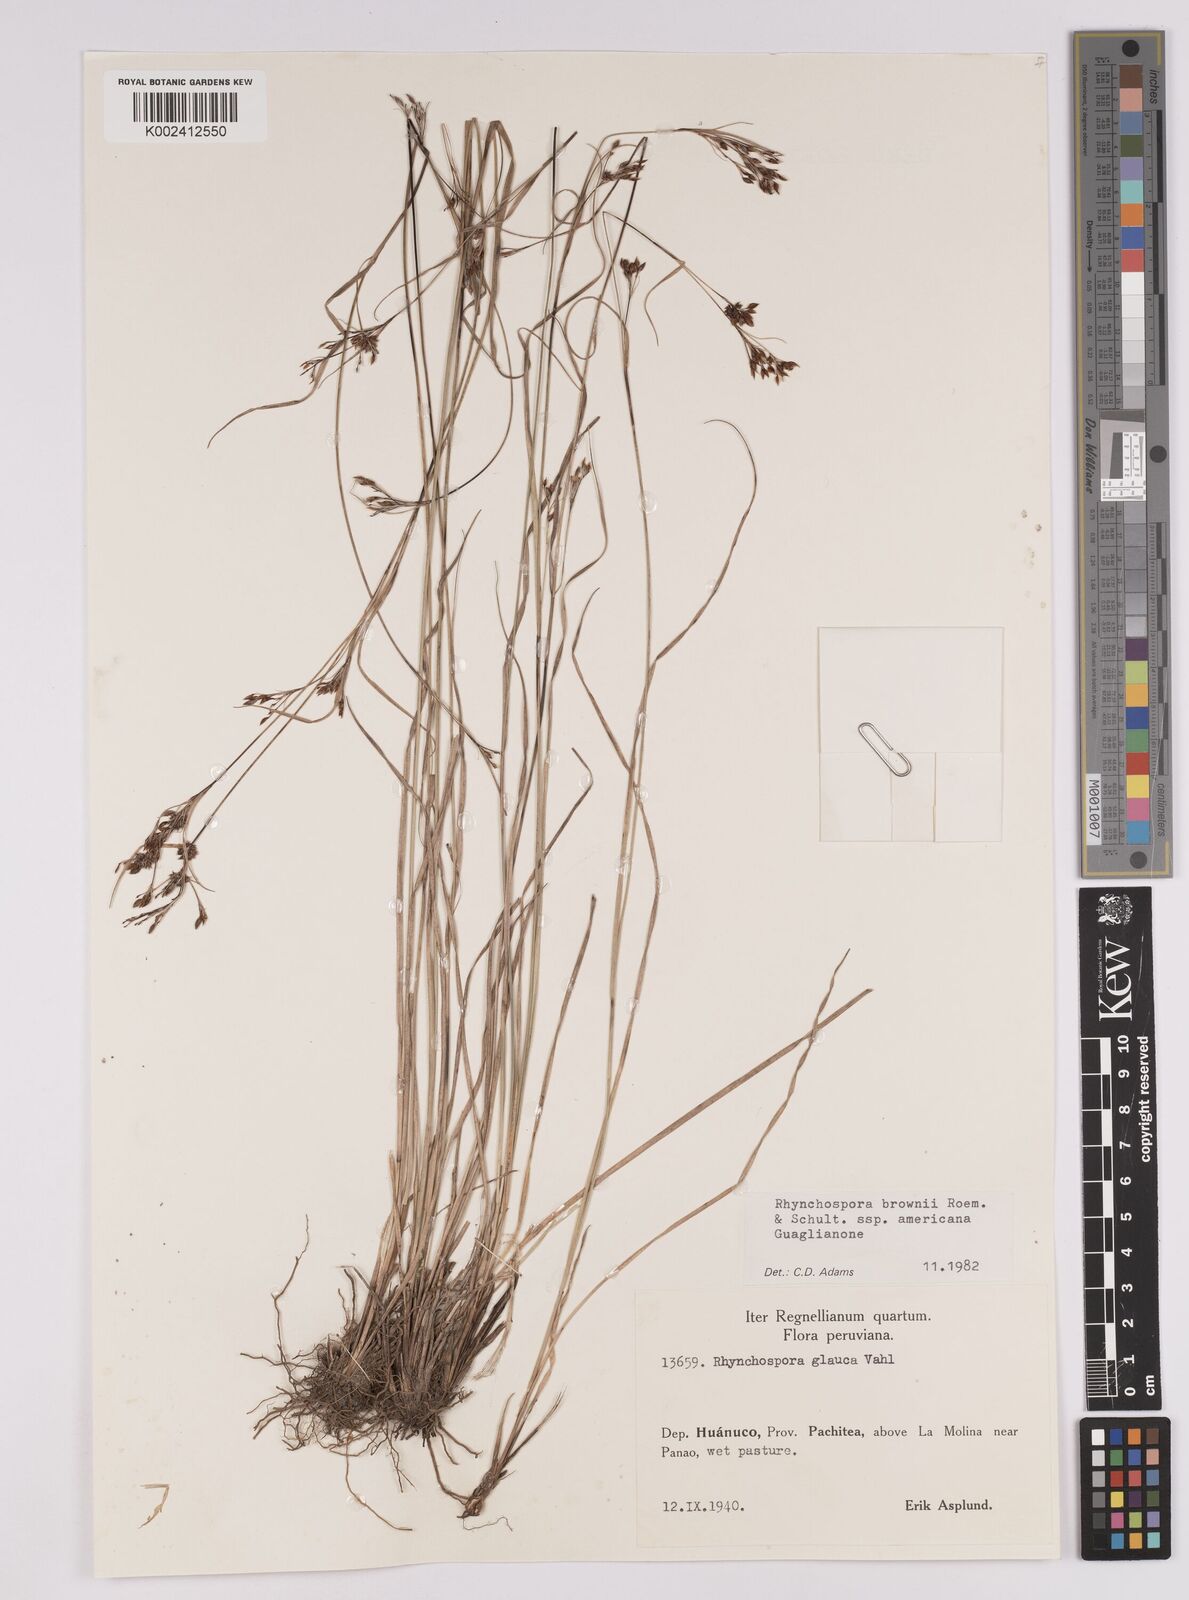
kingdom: Plantae
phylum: Tracheophyta
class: Liliopsida
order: Poales
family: Cyperaceae
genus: Rhynchospora
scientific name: Rhynchospora rugosa
